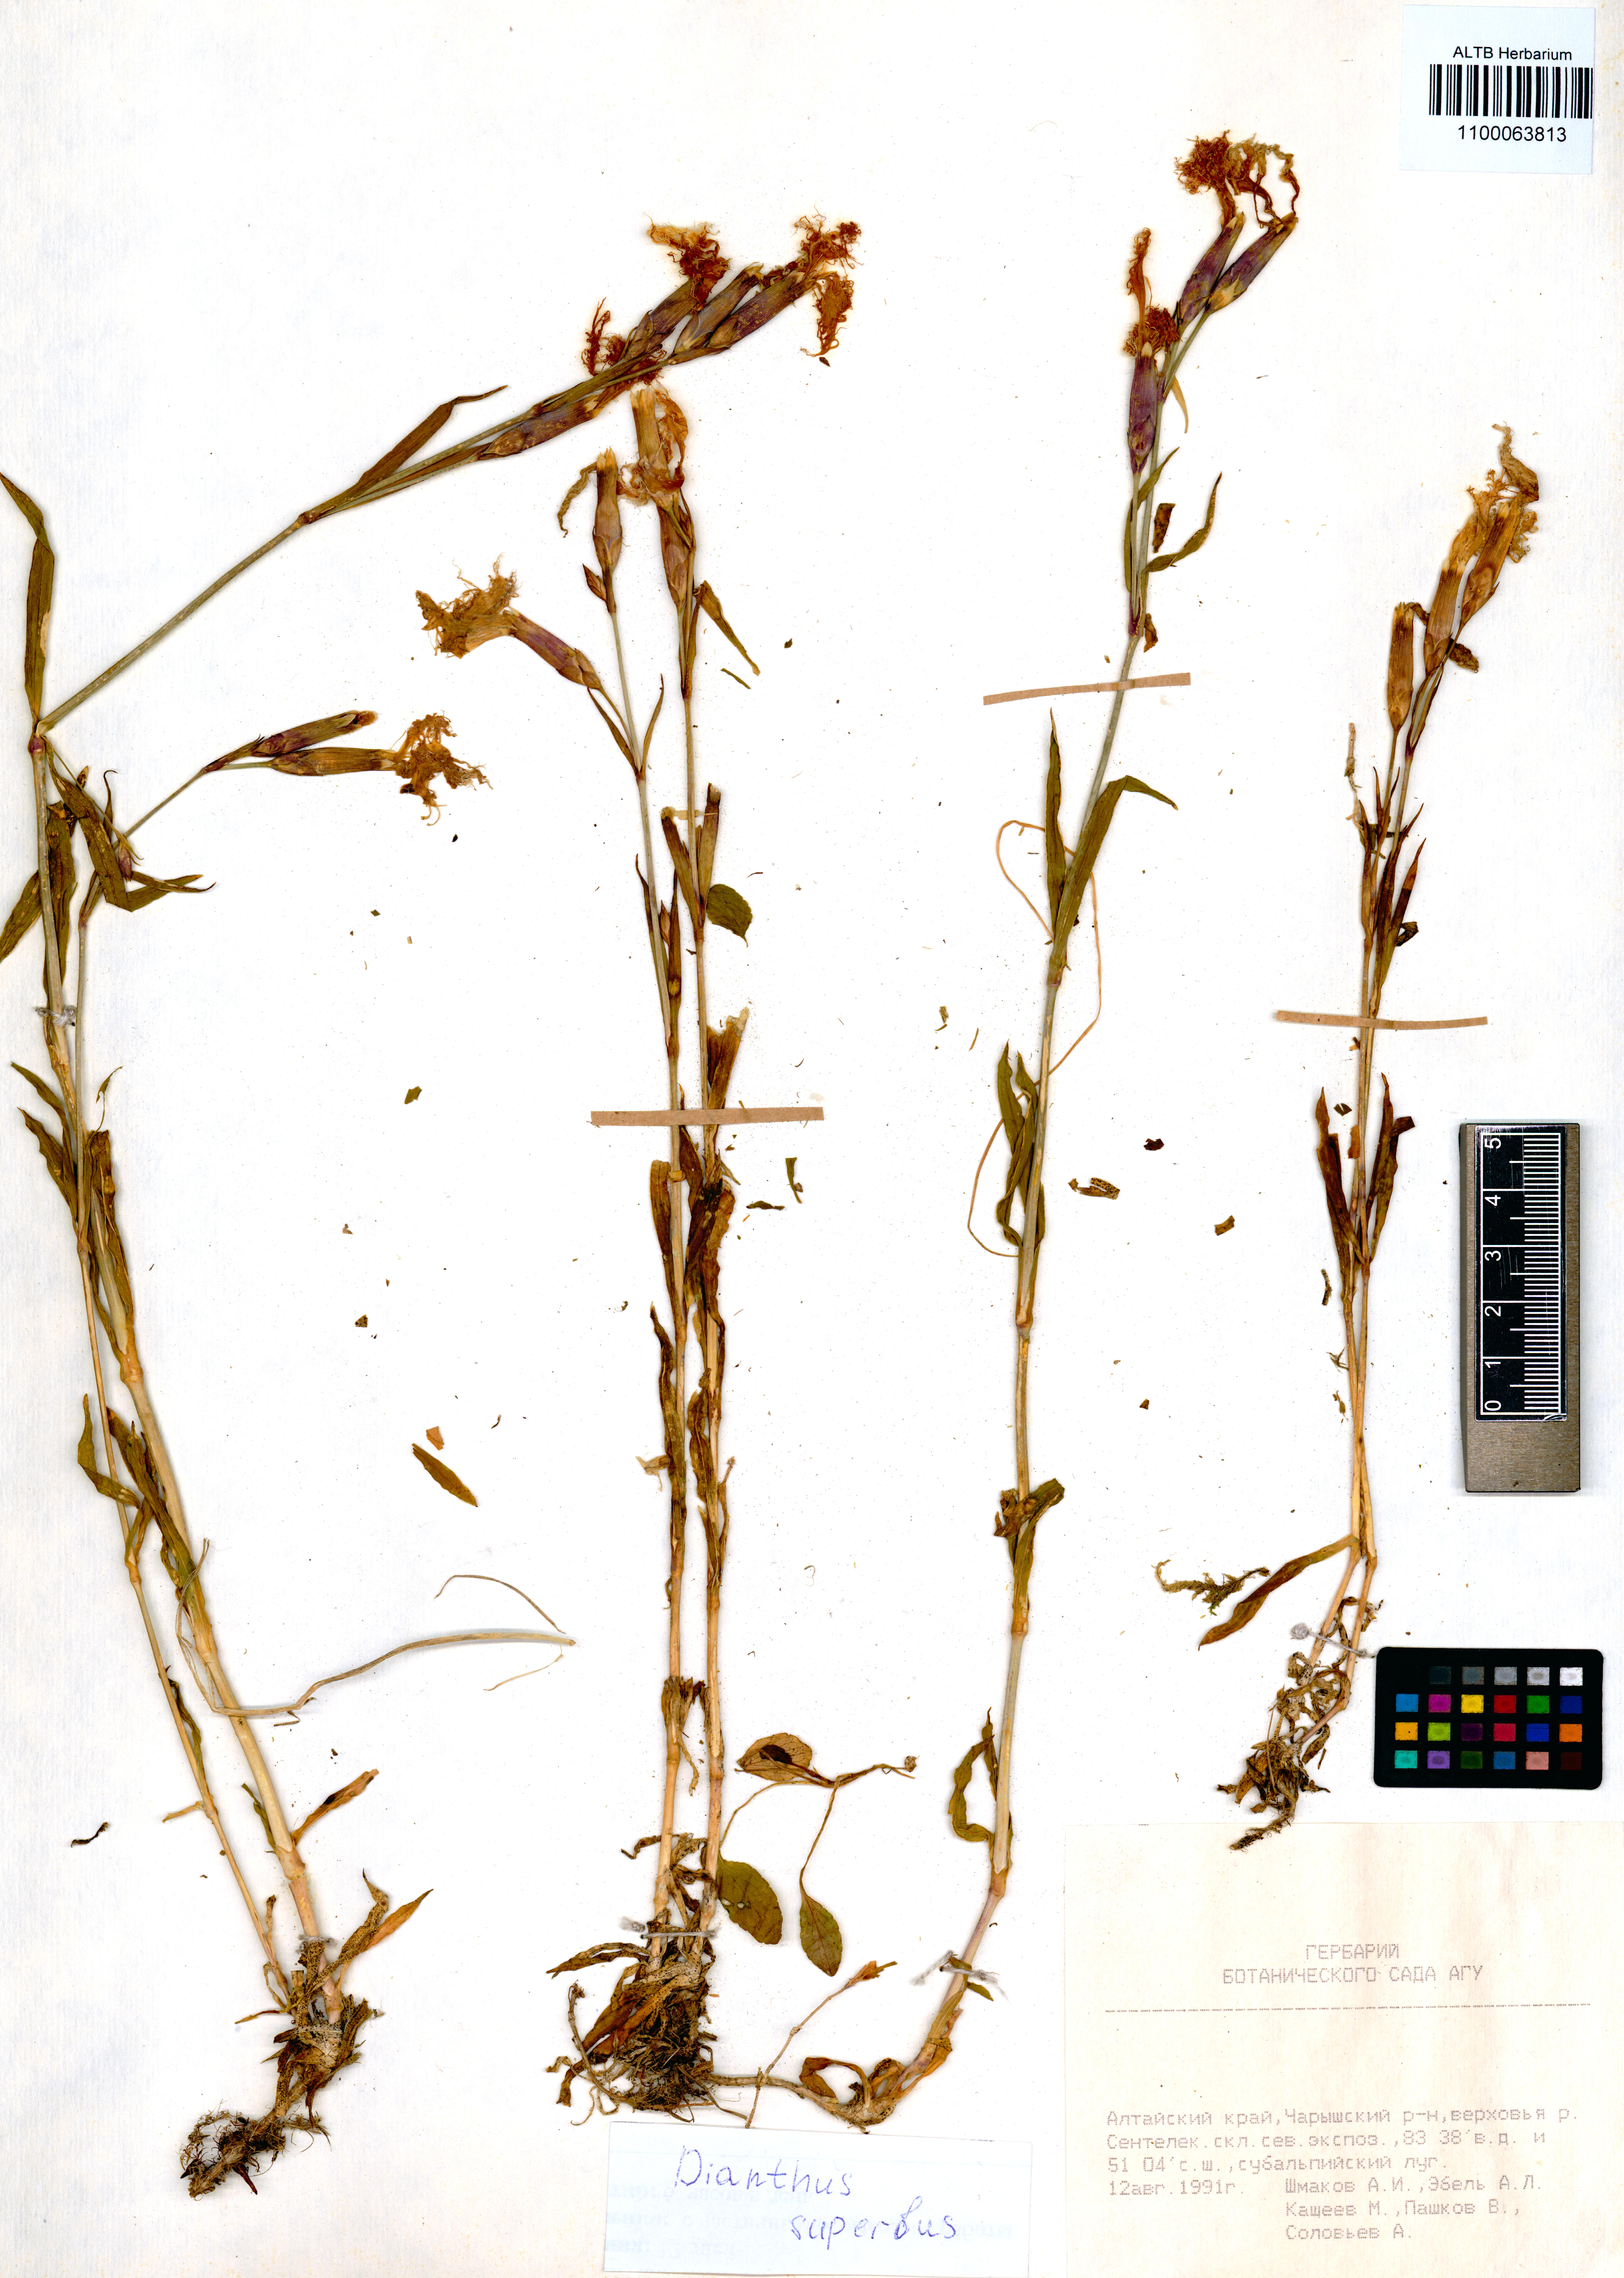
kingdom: Plantae
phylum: Tracheophyta
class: Magnoliopsida
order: Caryophyllales
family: Caryophyllaceae
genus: Dianthus
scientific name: Dianthus superbus
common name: Fringed pink
